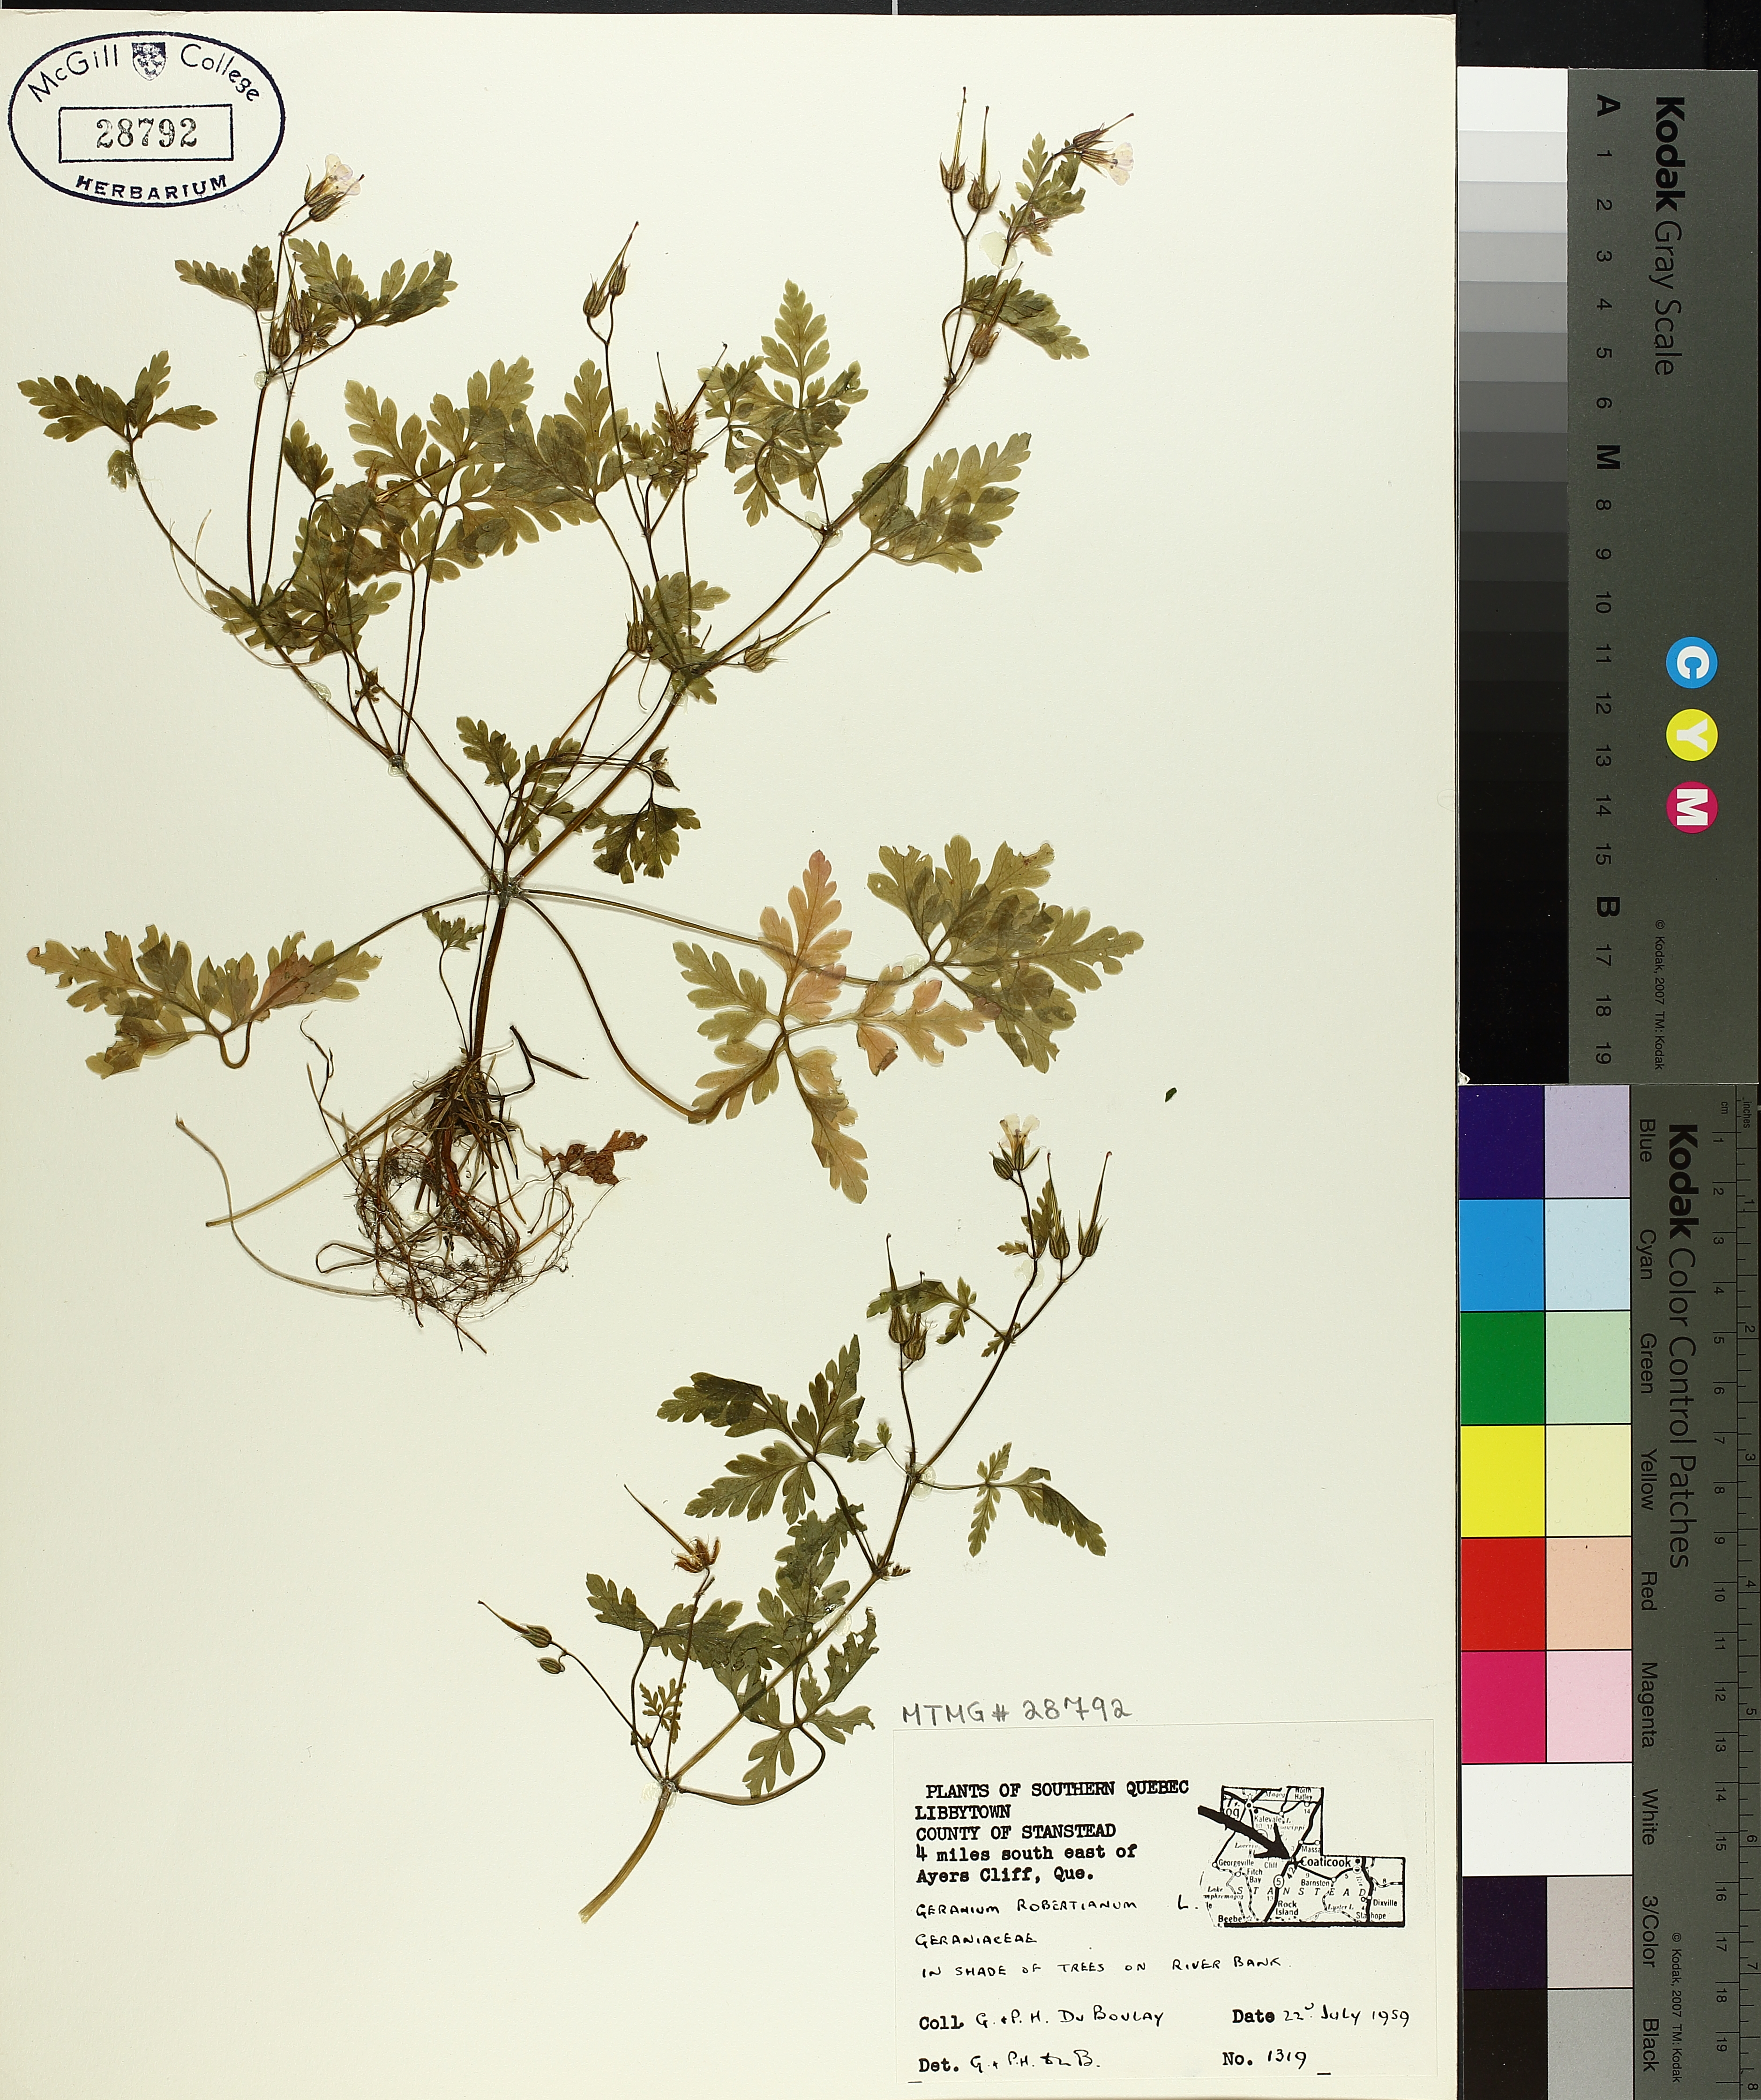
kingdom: Plantae
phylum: Tracheophyta
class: Magnoliopsida
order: Geraniales
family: Geraniaceae
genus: Geranium
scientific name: Geranium robertianum
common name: Herb-robert
